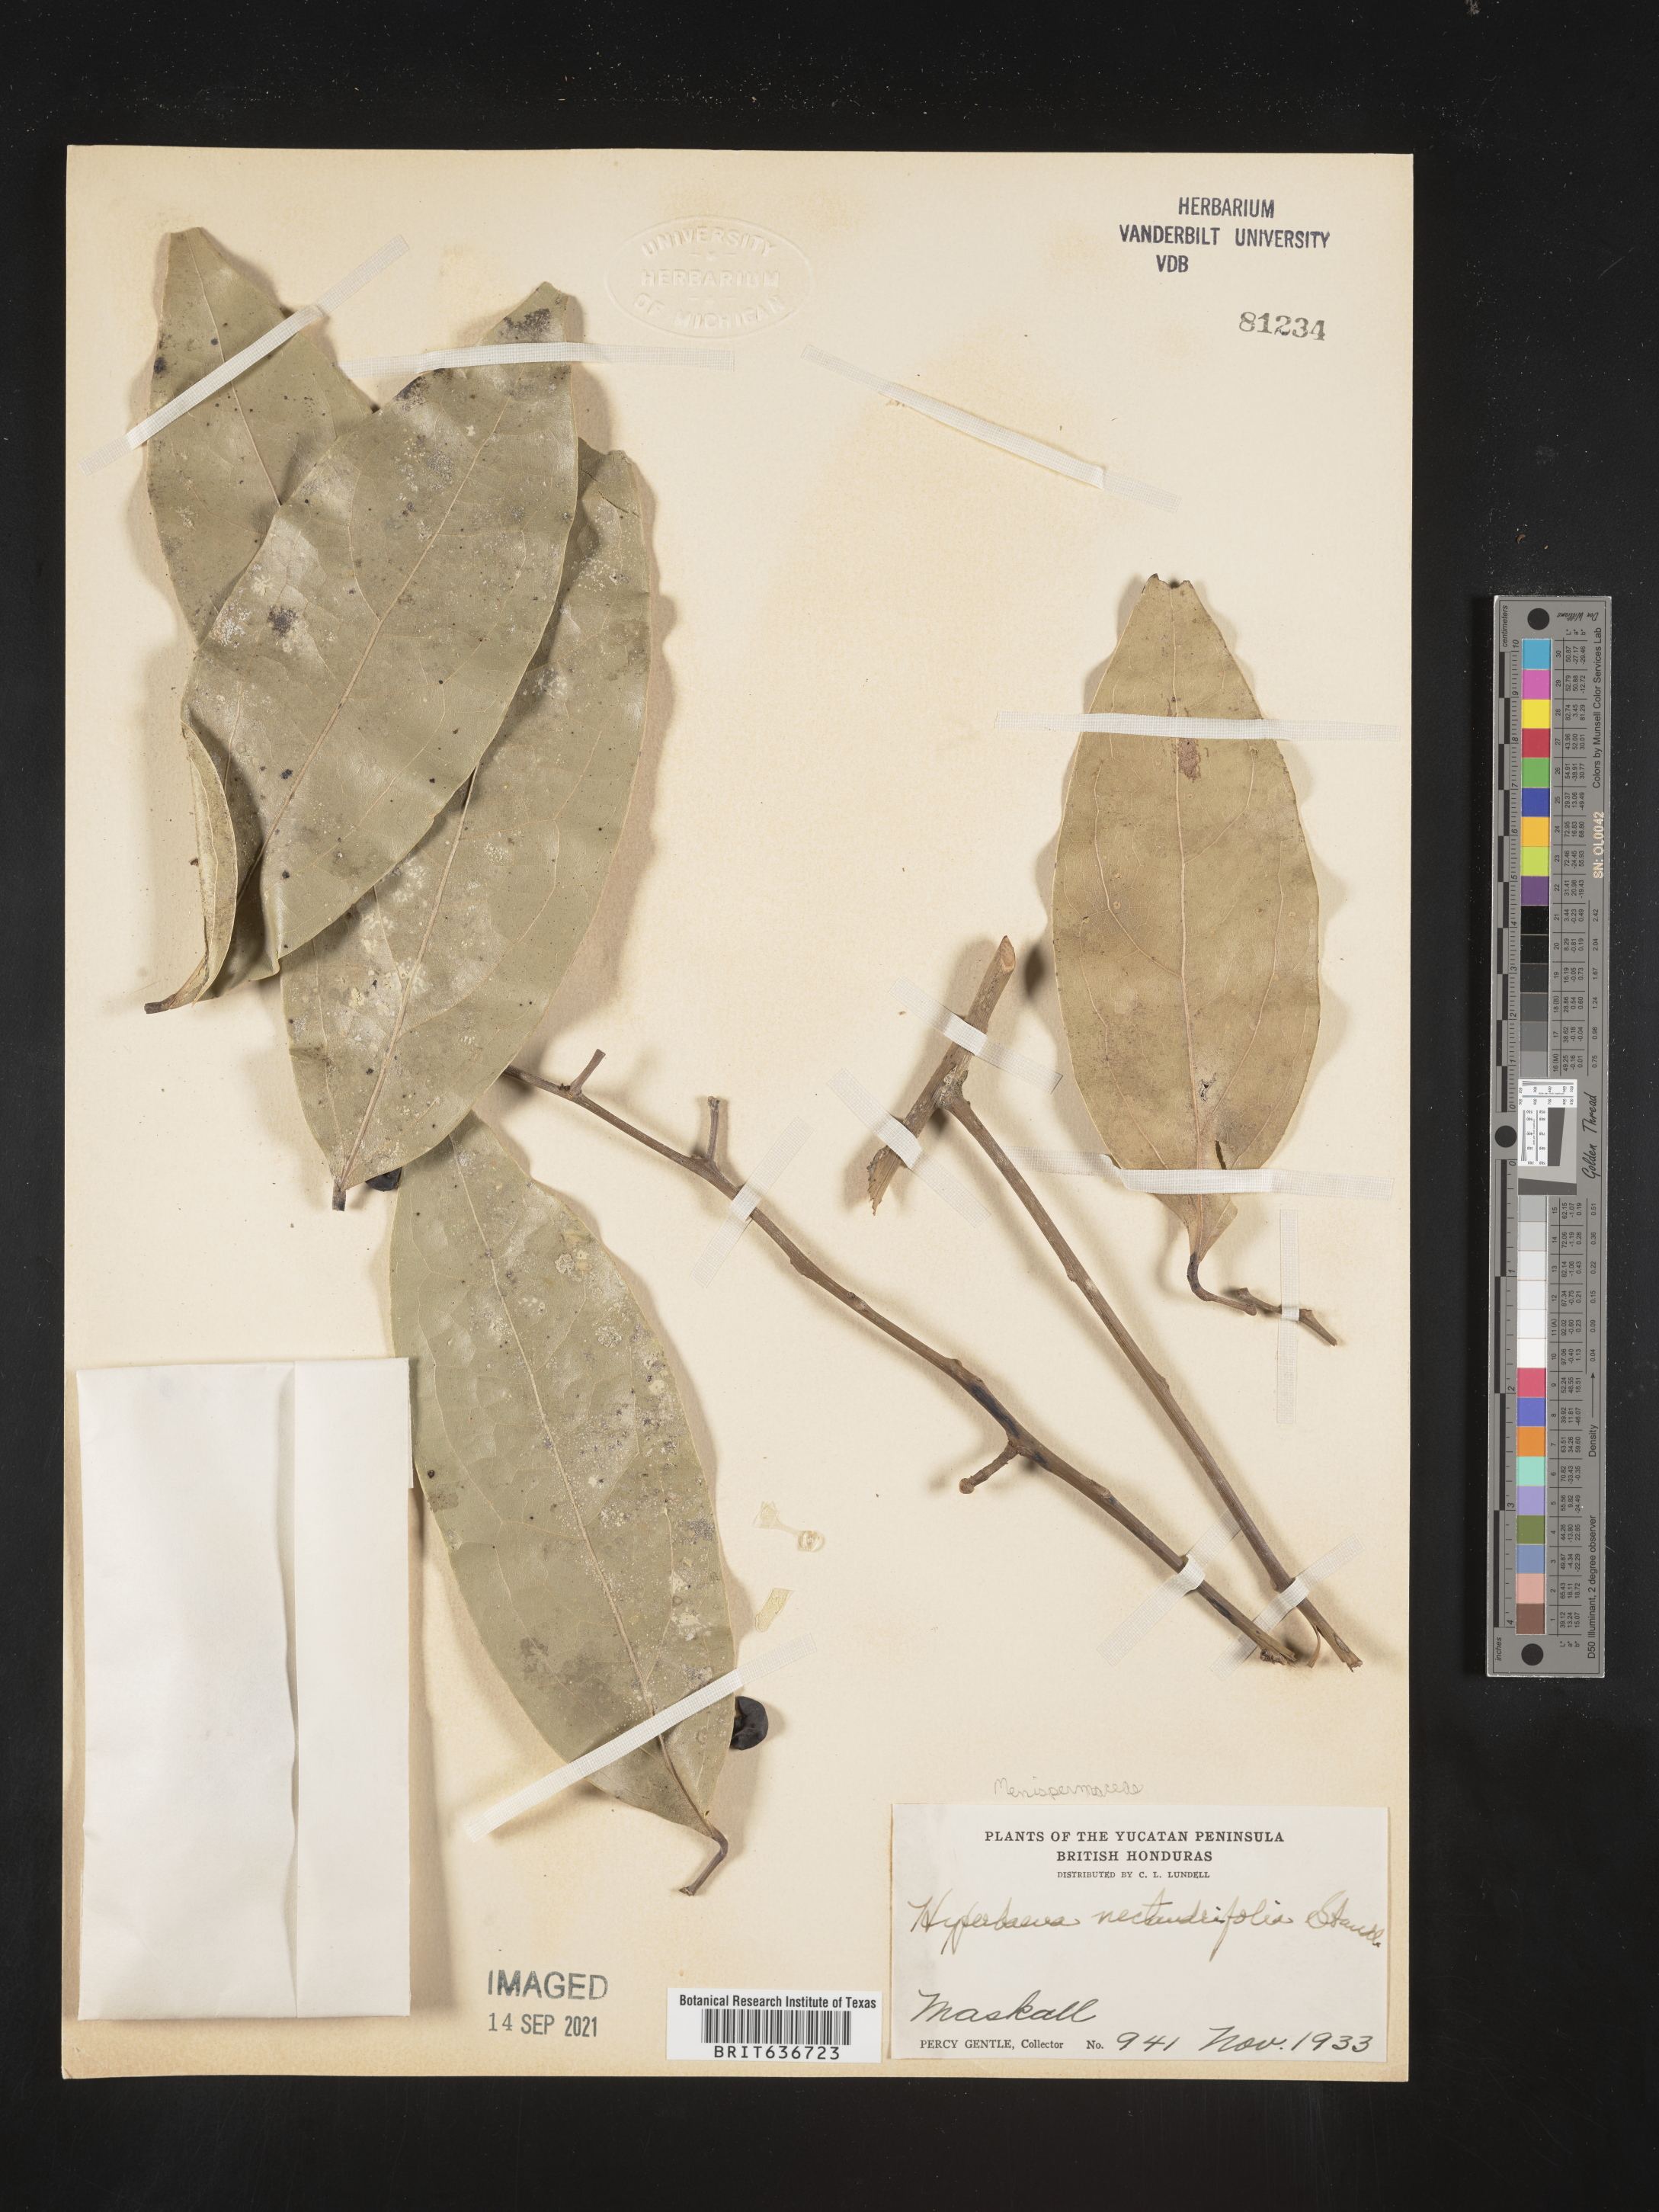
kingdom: Plantae
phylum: Tracheophyta
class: Magnoliopsida
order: Ranunculales
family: Menispermaceae
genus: Hyperbaena
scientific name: Hyperbaena
